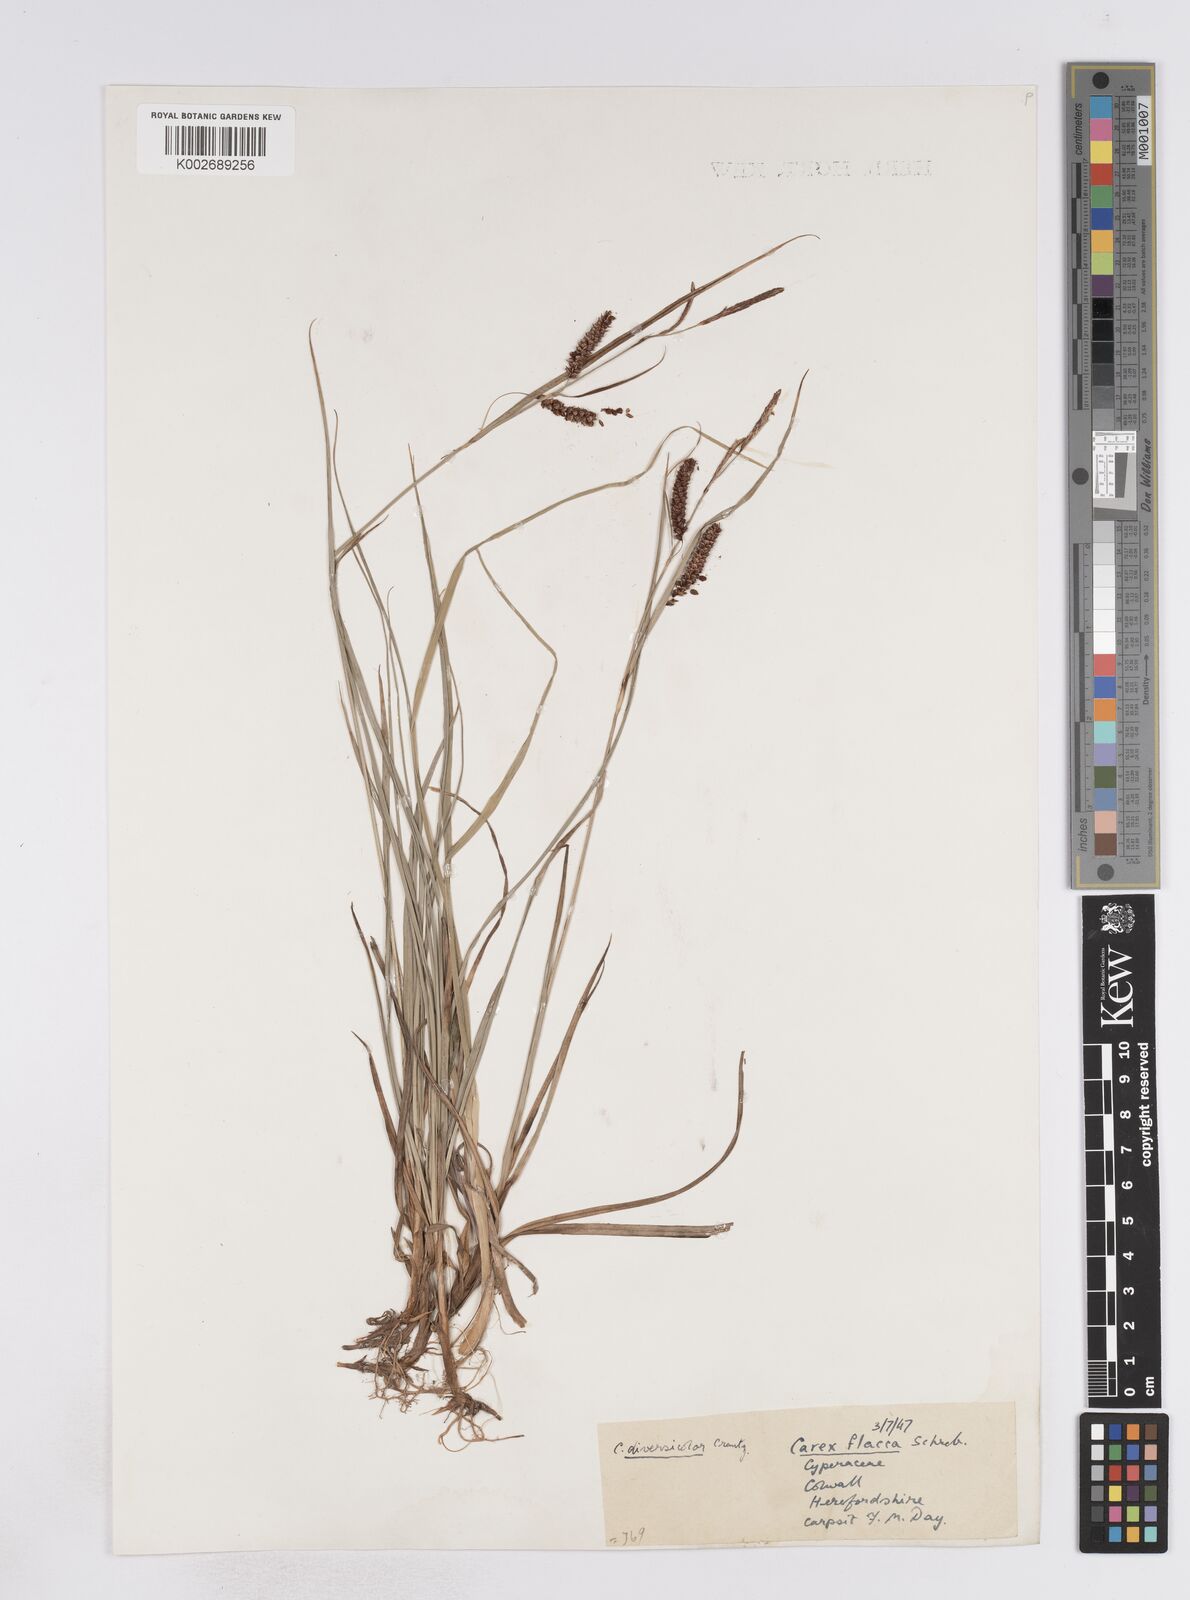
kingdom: Plantae
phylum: Tracheophyta
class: Liliopsida
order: Poales
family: Cyperaceae
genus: Carex
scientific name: Carex flacca
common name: Glaucous sedge
